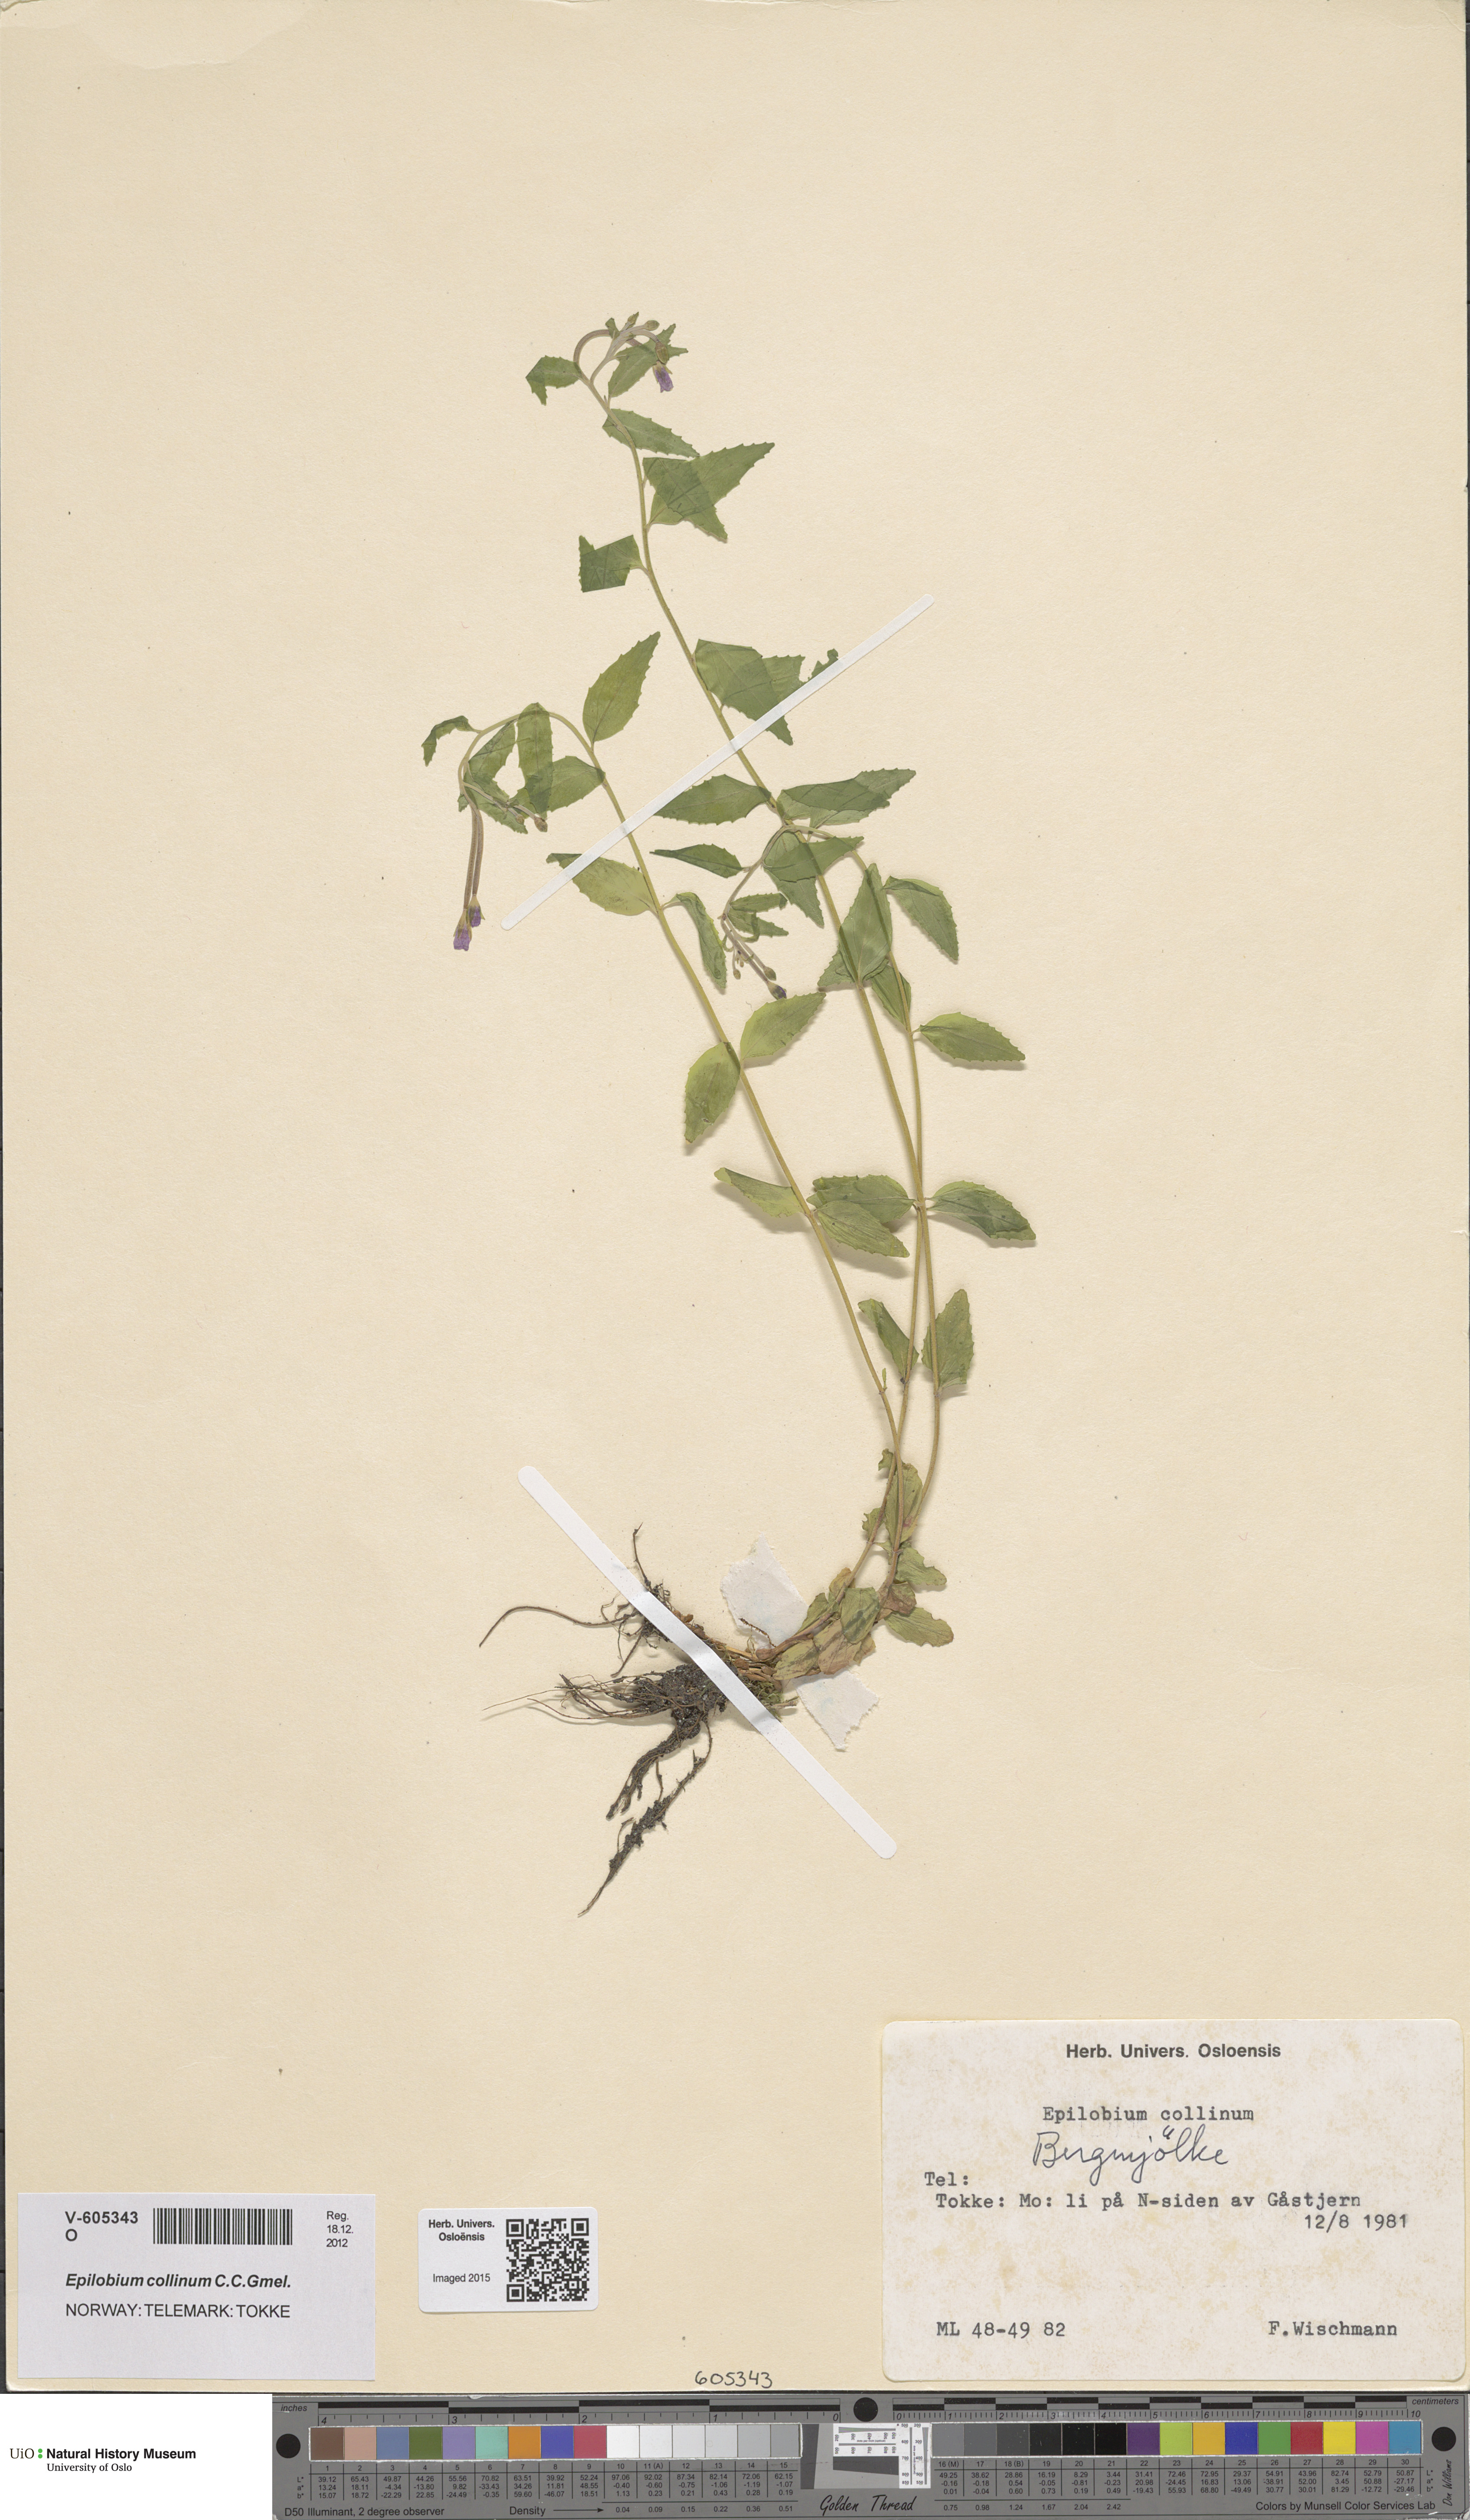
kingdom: Plantae
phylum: Tracheophyta
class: Magnoliopsida
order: Myrtales
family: Onagraceae
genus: Epilobium
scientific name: Epilobium collinum
